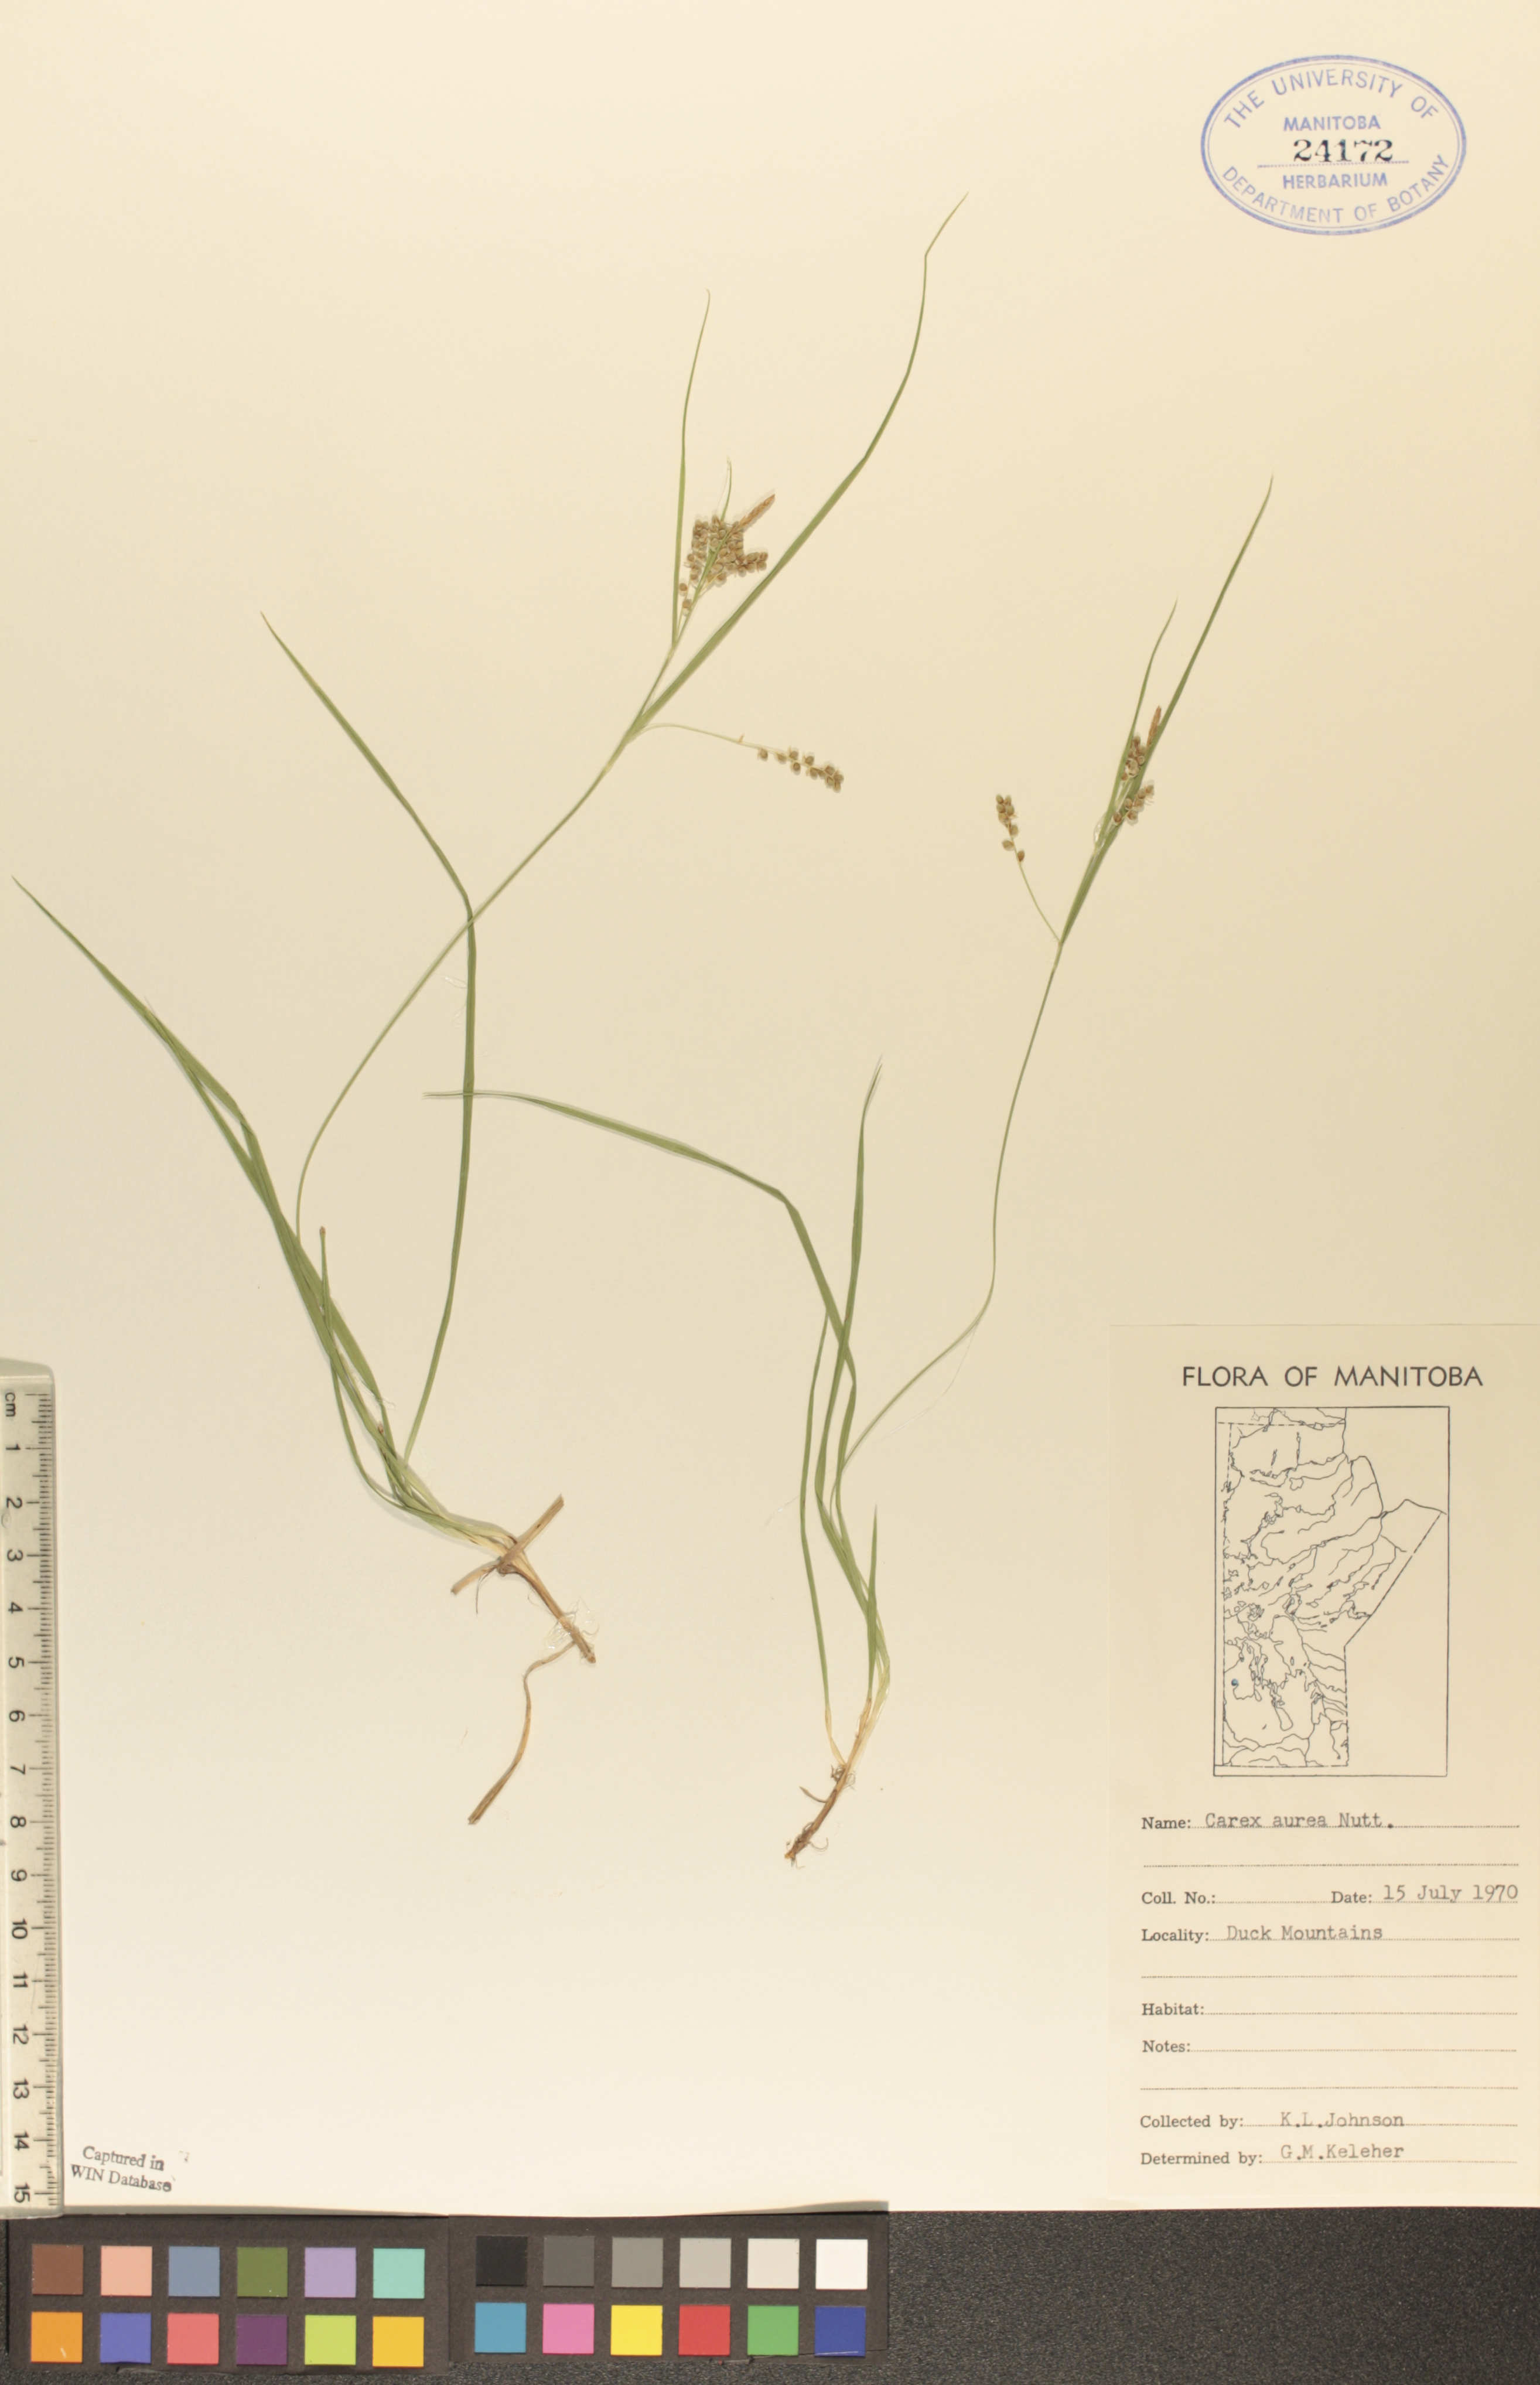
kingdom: Plantae
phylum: Tracheophyta
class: Liliopsida
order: Poales
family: Cyperaceae
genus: Carex
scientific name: Carex aurea
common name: Golden sedge
